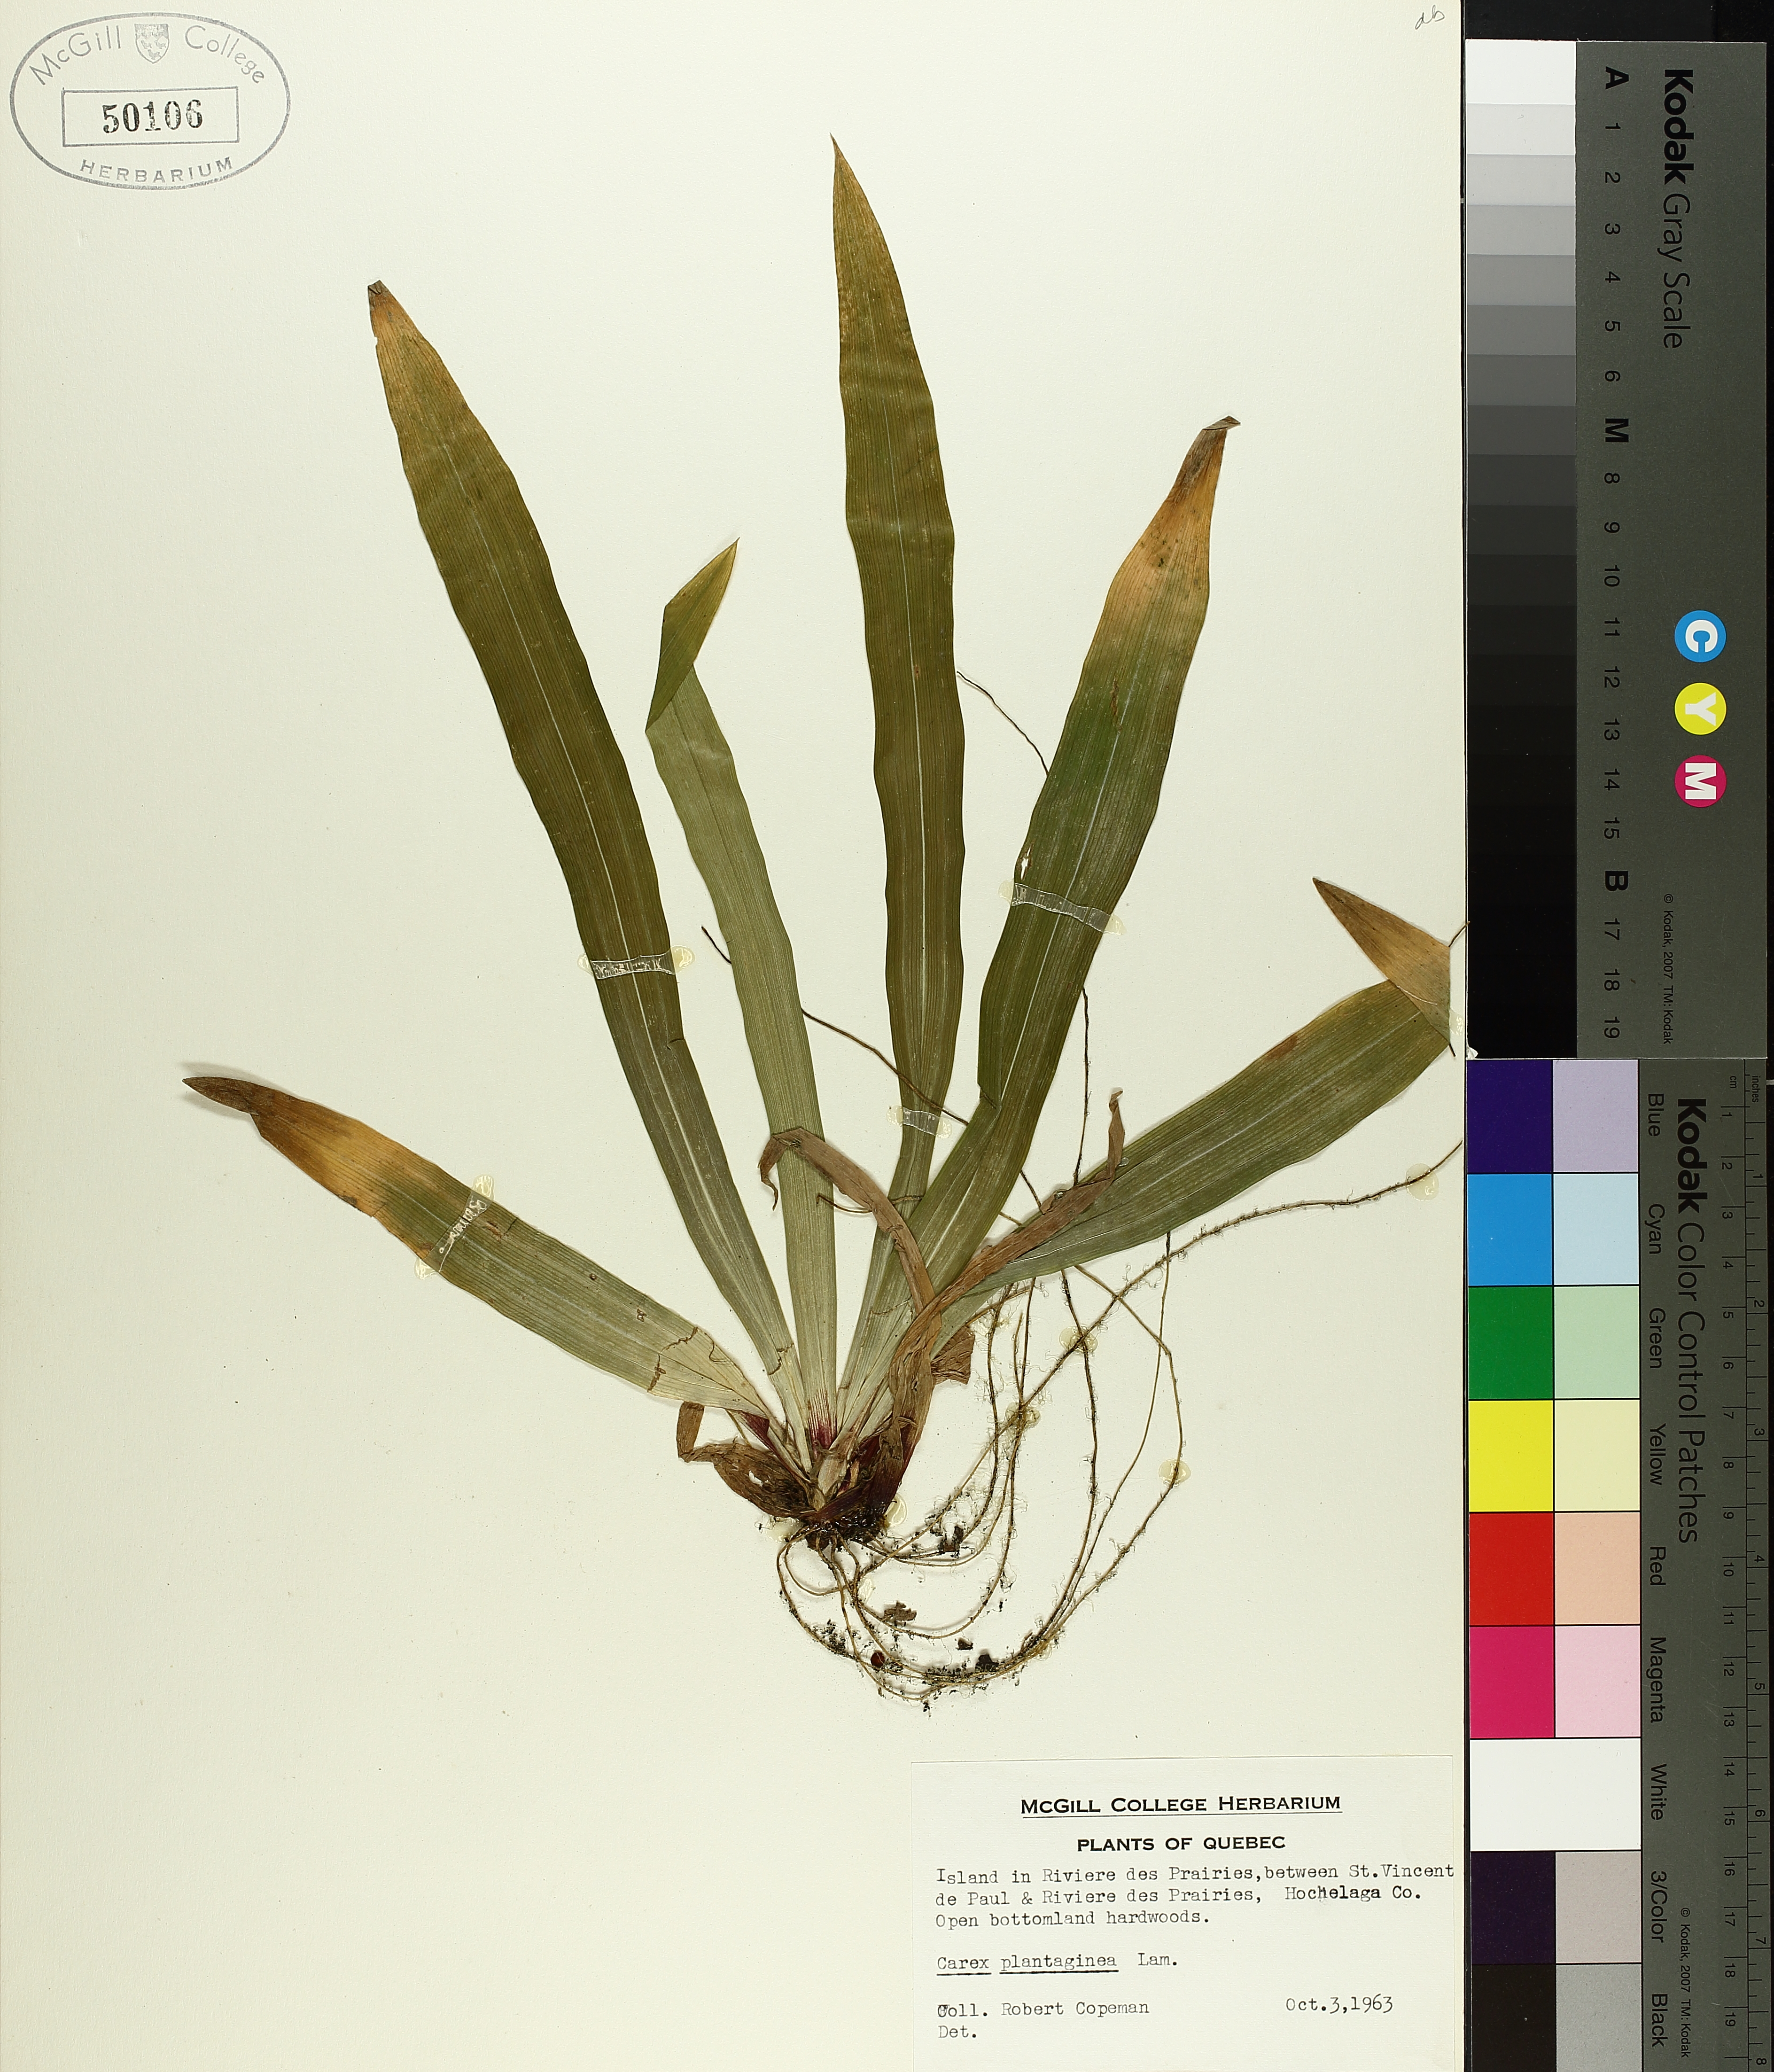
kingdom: Plantae
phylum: Tracheophyta
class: Liliopsida
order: Poales
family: Cyperaceae
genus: Carex
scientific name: Carex plantaginea
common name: Plantain-leaved sedge
